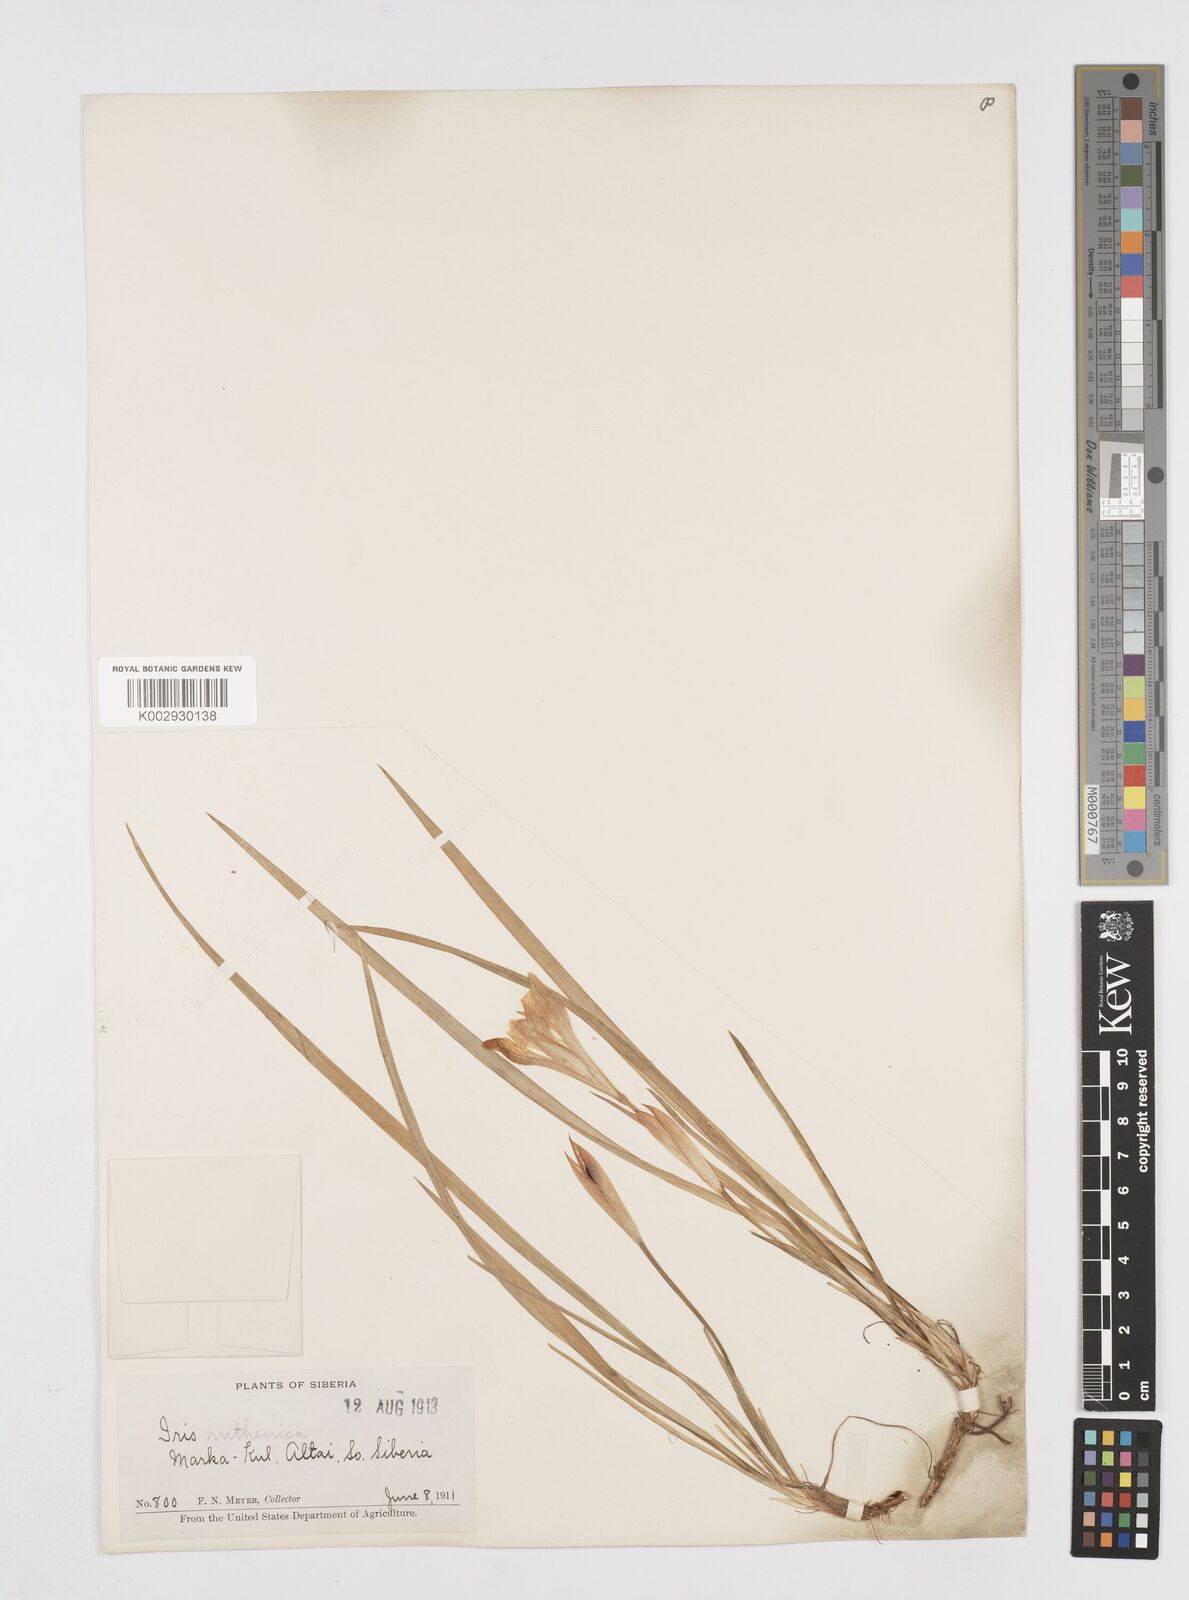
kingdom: Plantae
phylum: Tracheophyta
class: Liliopsida
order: Asparagales
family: Iridaceae
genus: Iris
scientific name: Iris ruthenica
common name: Purple-bract iris
